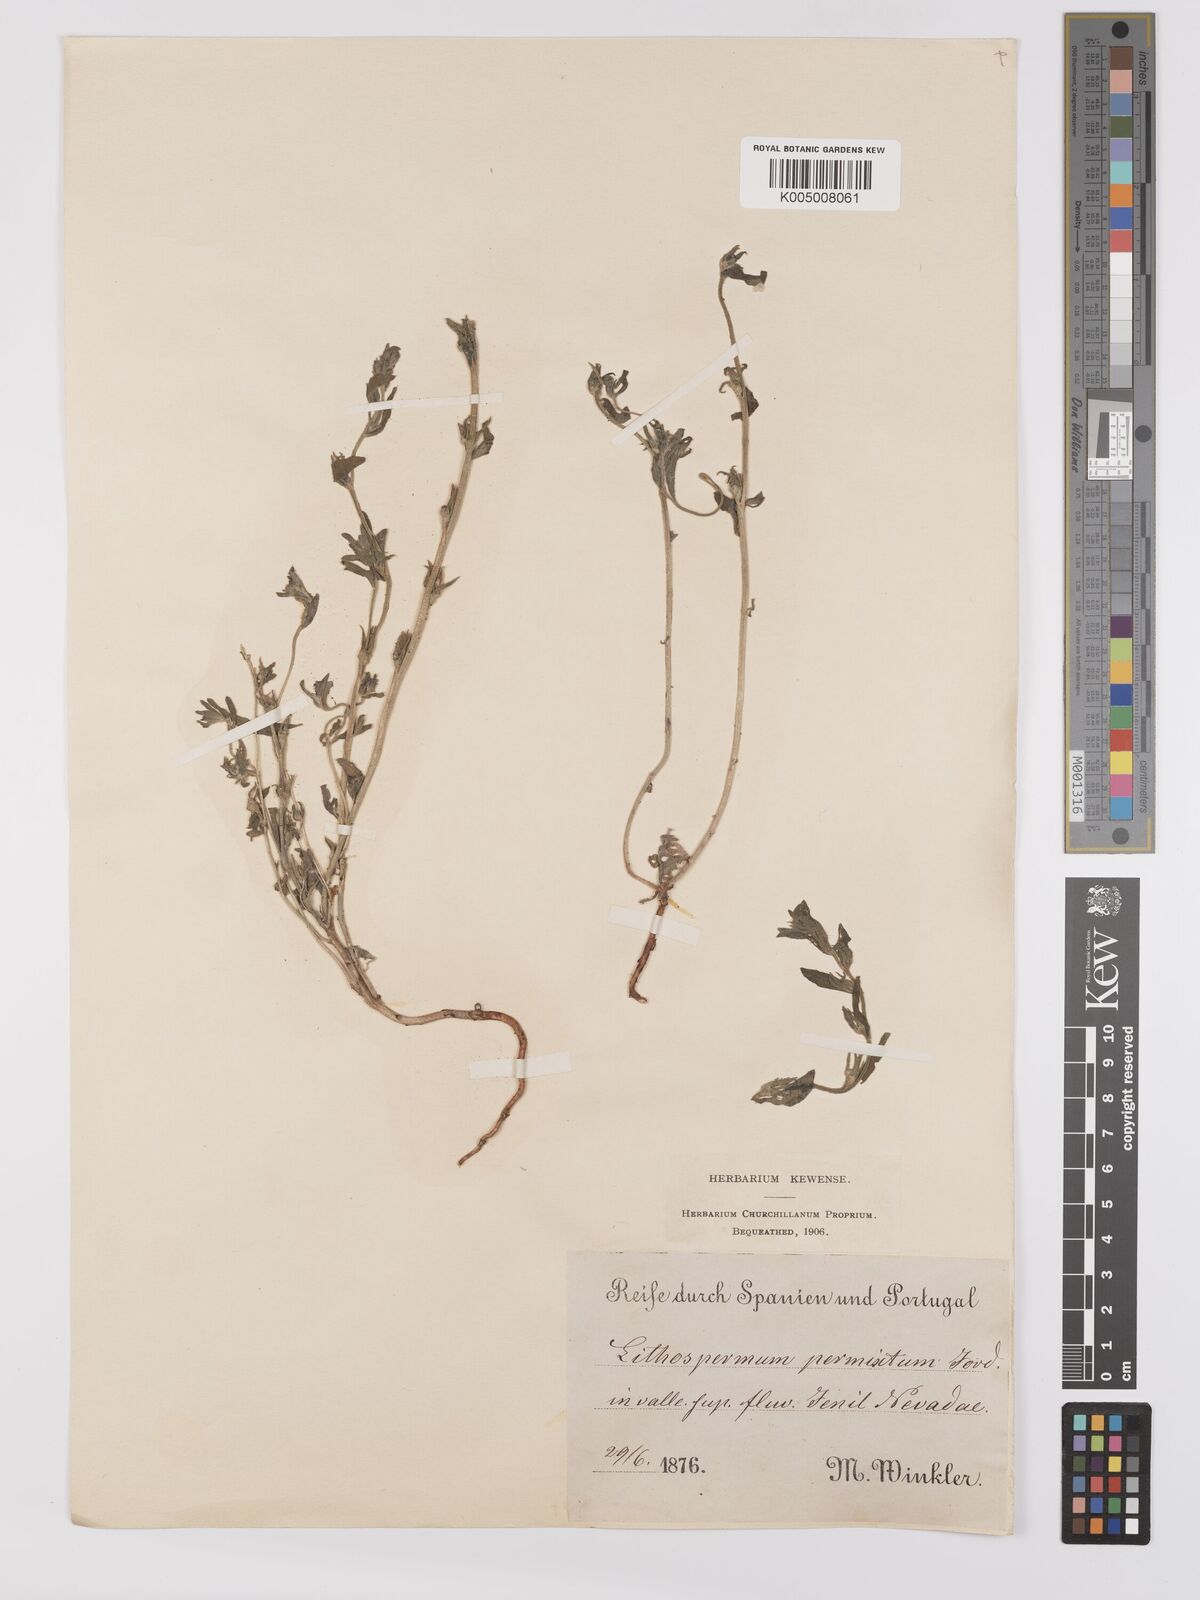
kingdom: Plantae
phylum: Tracheophyta
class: Magnoliopsida
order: Boraginales
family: Boraginaceae
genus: Buglossoides
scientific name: Buglossoides incrassata
